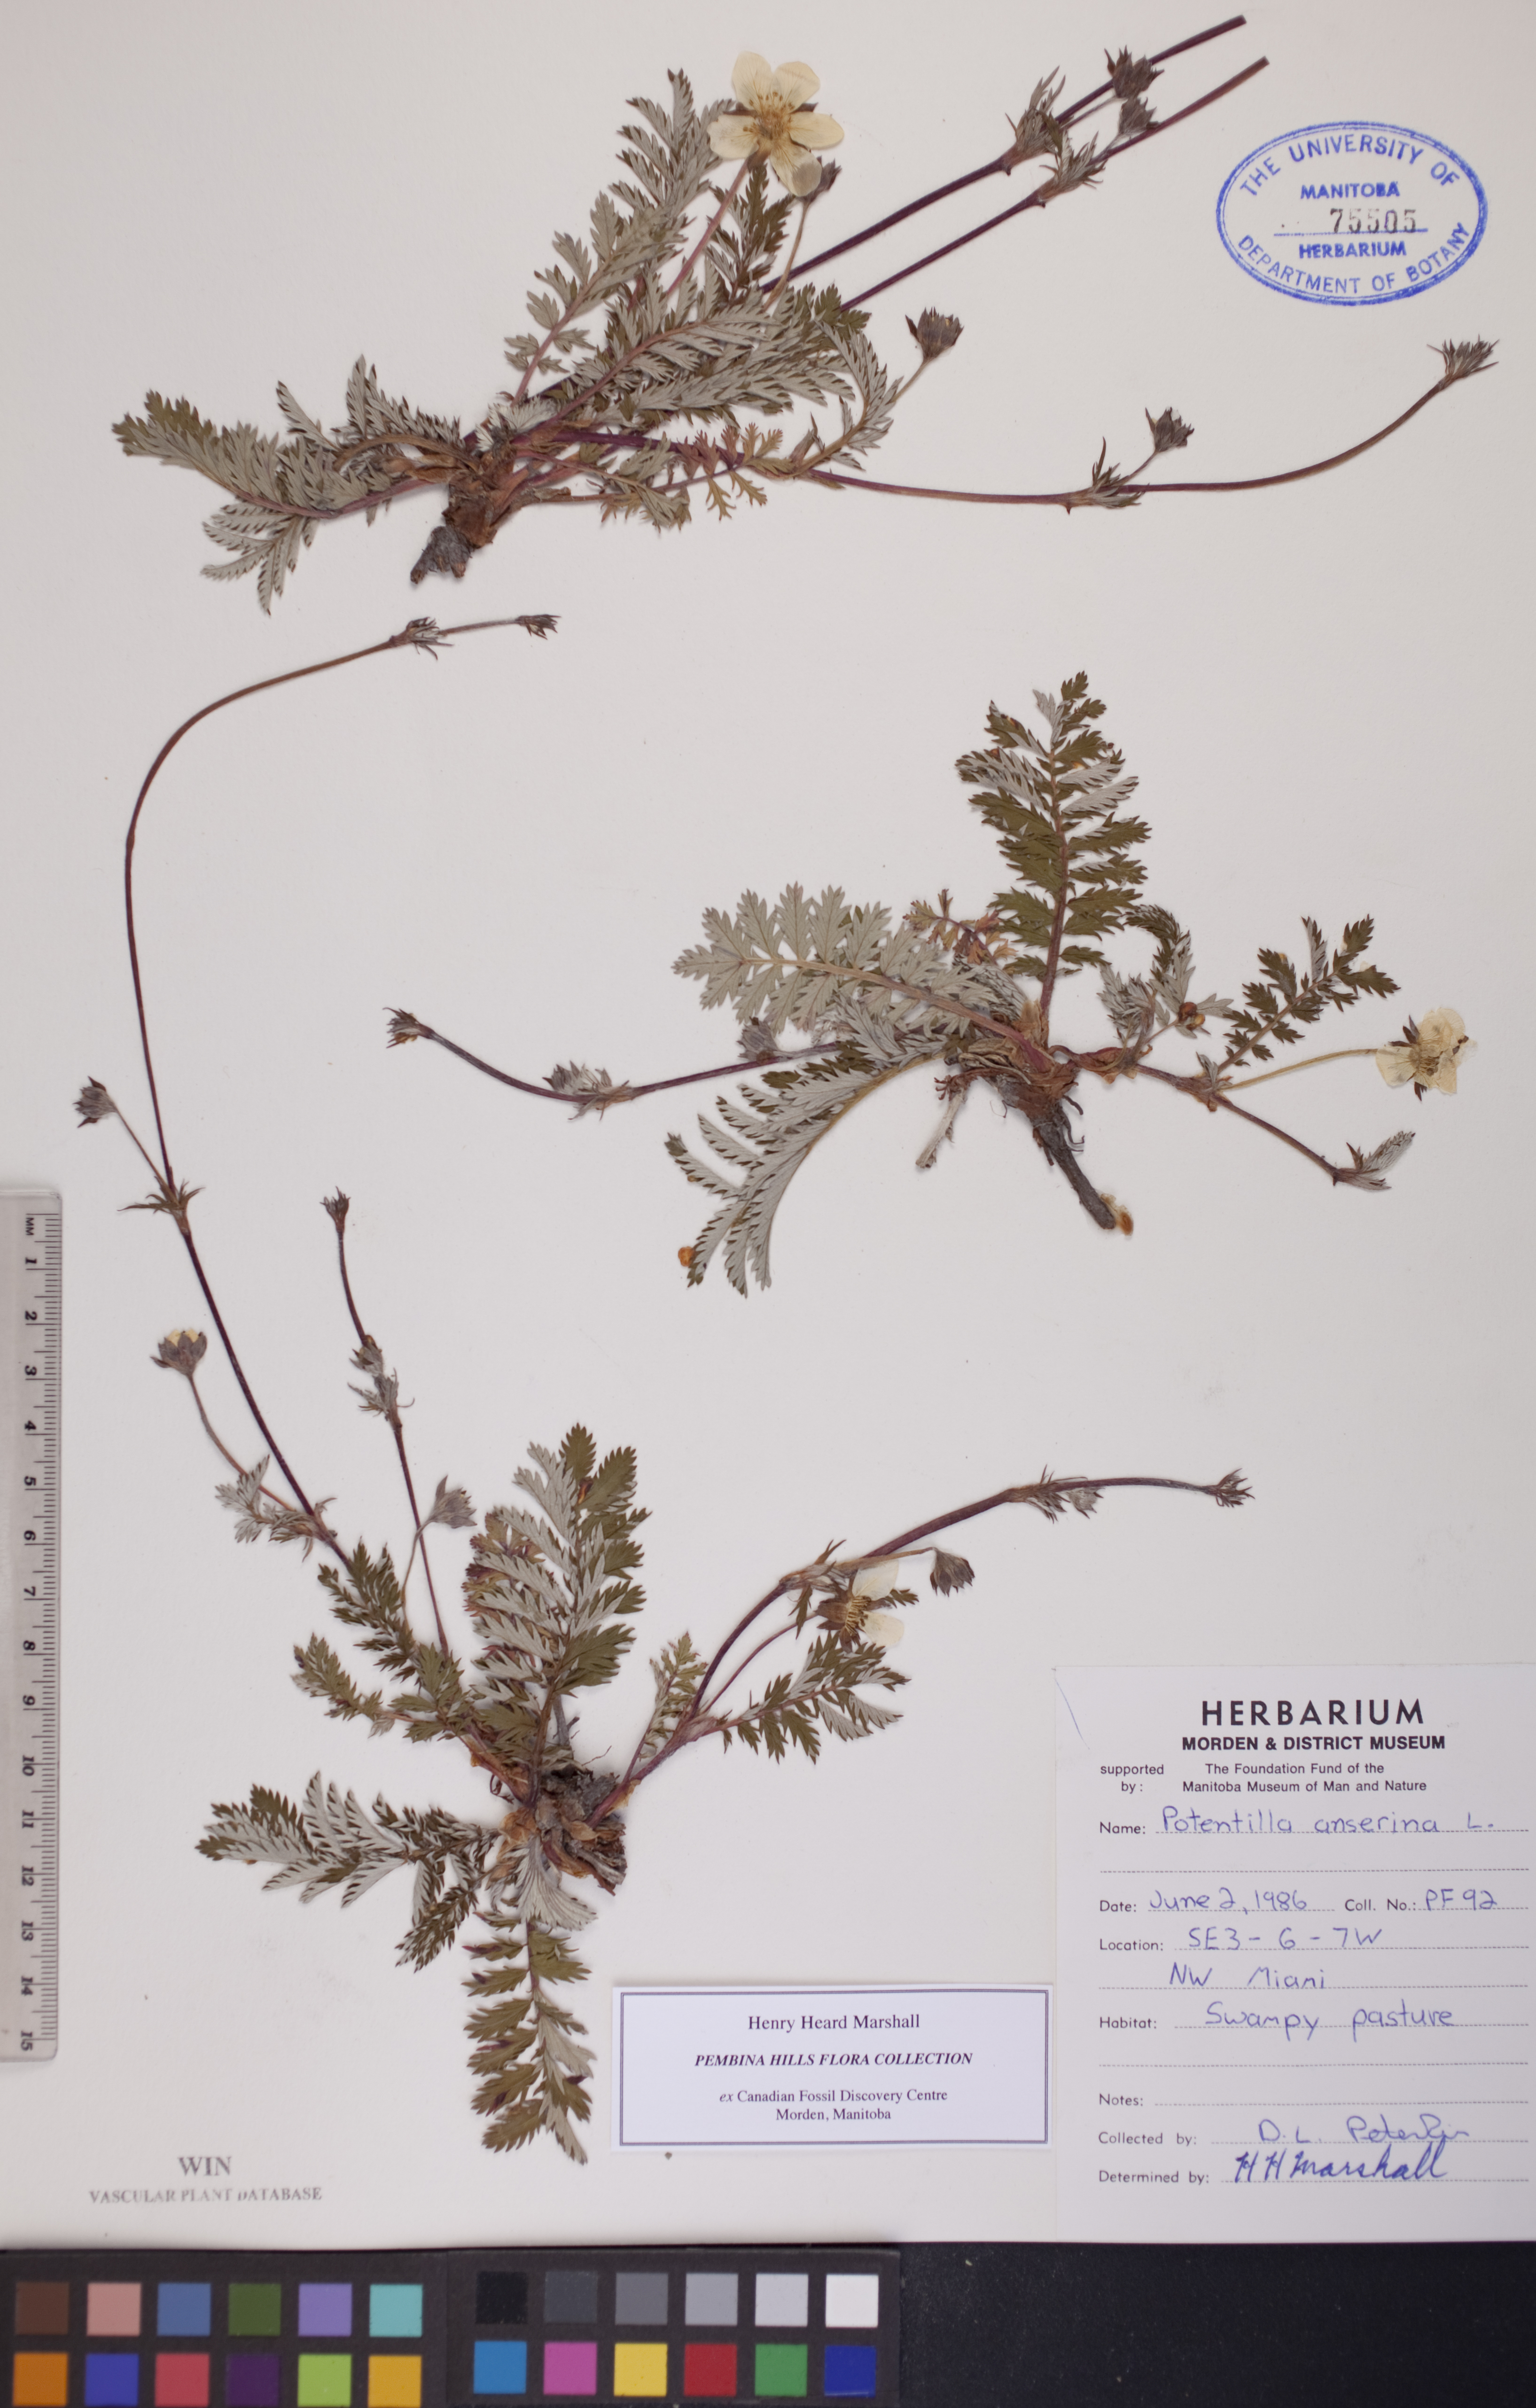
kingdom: Plantae
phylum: Tracheophyta
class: Magnoliopsida
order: Rosales
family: Rosaceae
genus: Argentina
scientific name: Argentina anserina
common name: Common silverweed
